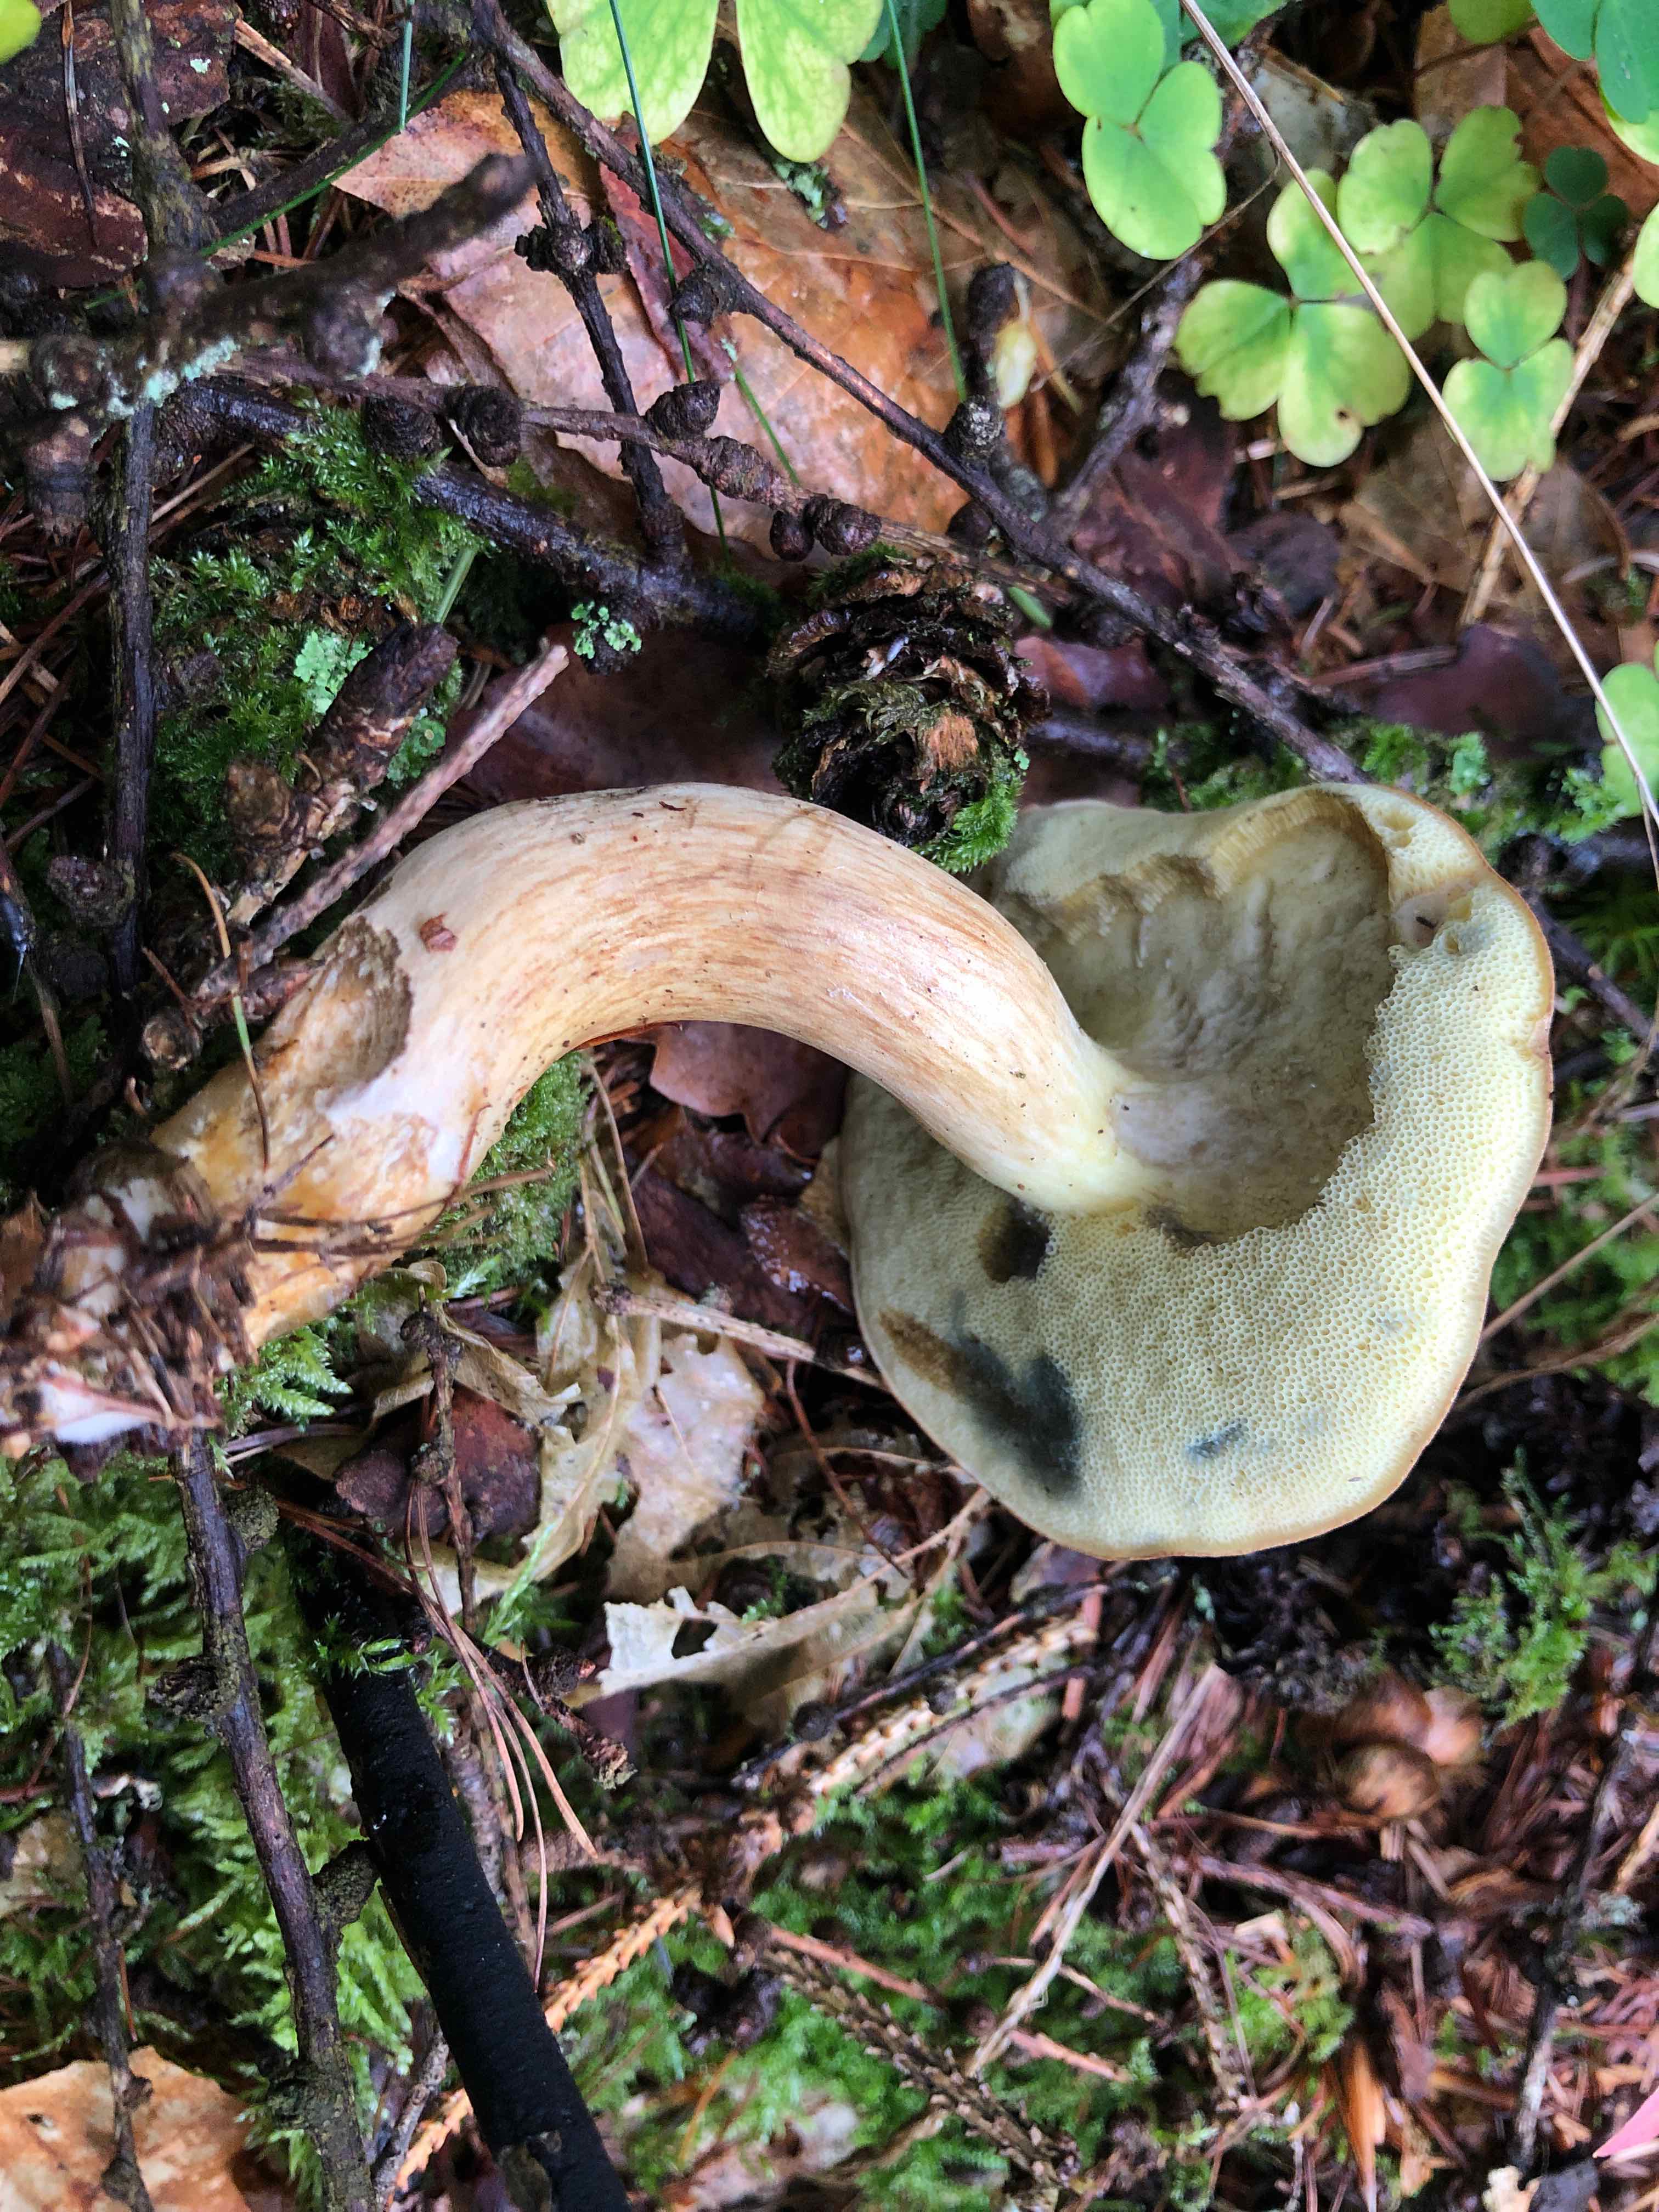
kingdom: Fungi
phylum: Basidiomycota
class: Agaricomycetes
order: Boletales
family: Boletaceae
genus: Imleria
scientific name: Imleria badia
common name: brunstokket rørhat
